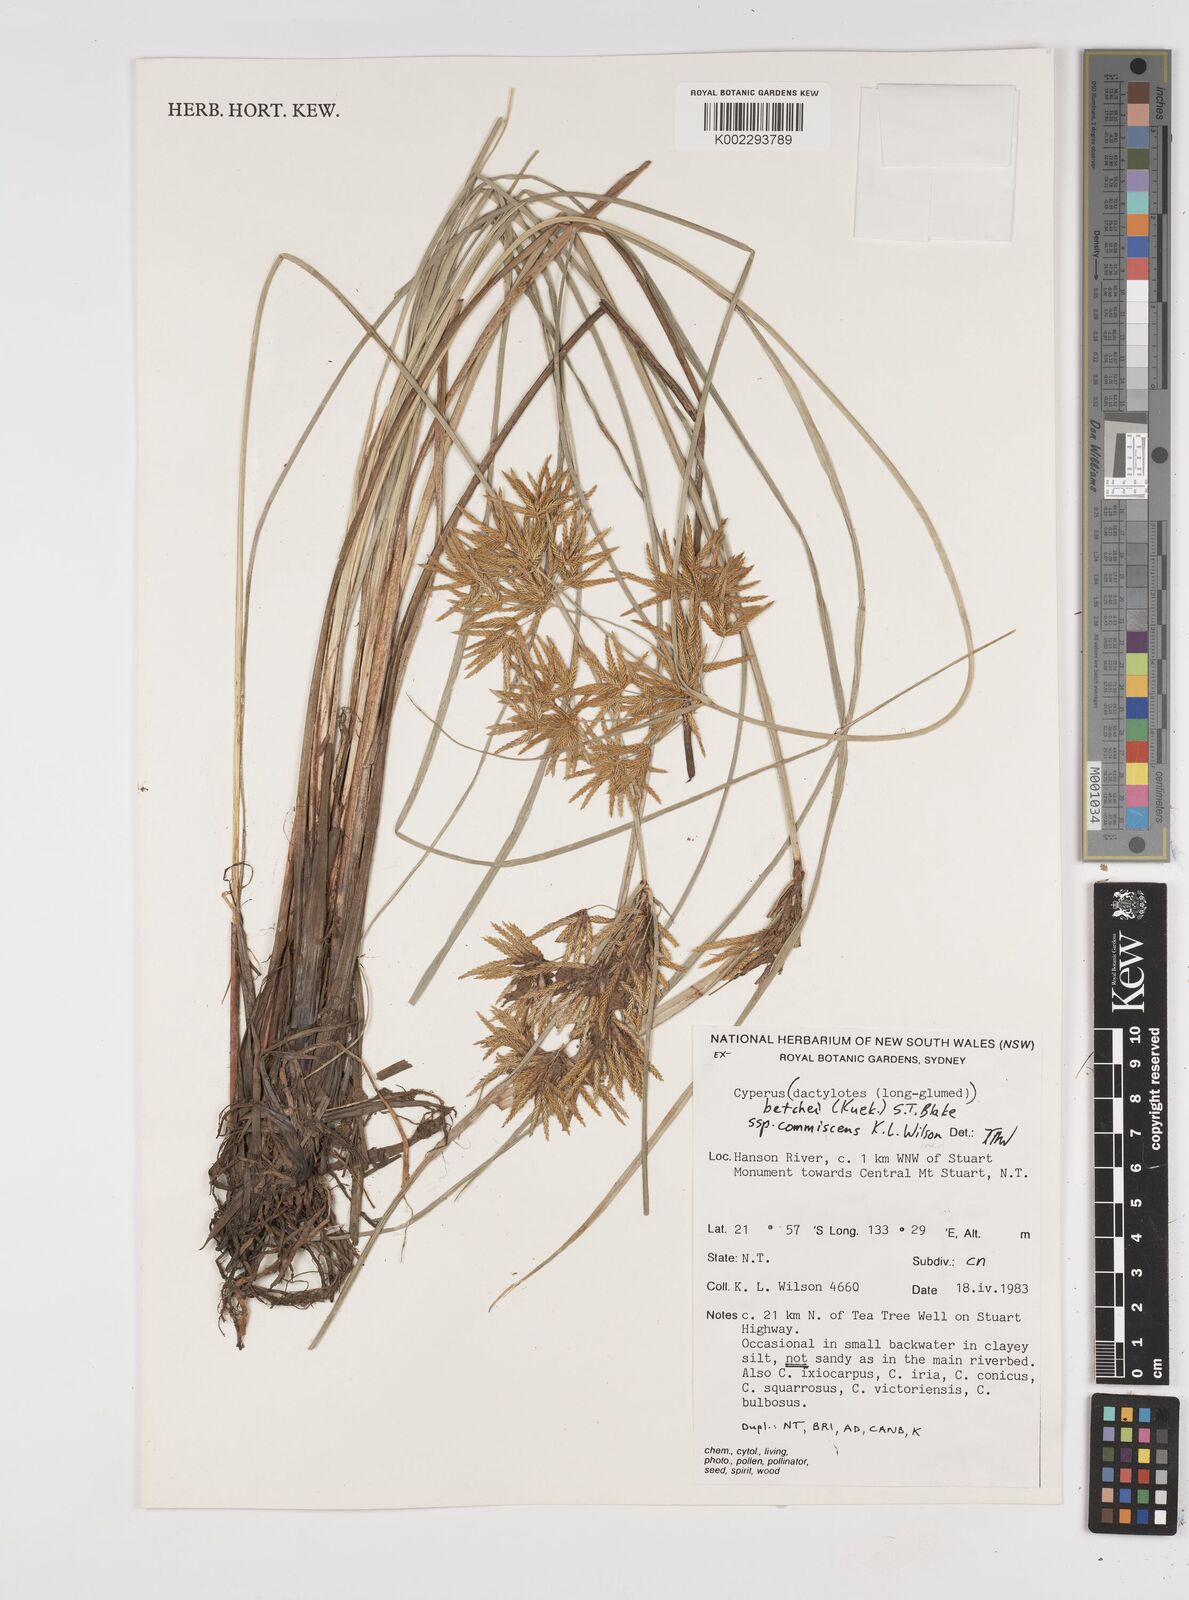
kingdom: Plantae
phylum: Tracheophyta
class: Liliopsida
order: Poales
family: Cyperaceae
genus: Cyperus
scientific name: Cyperus betchei
